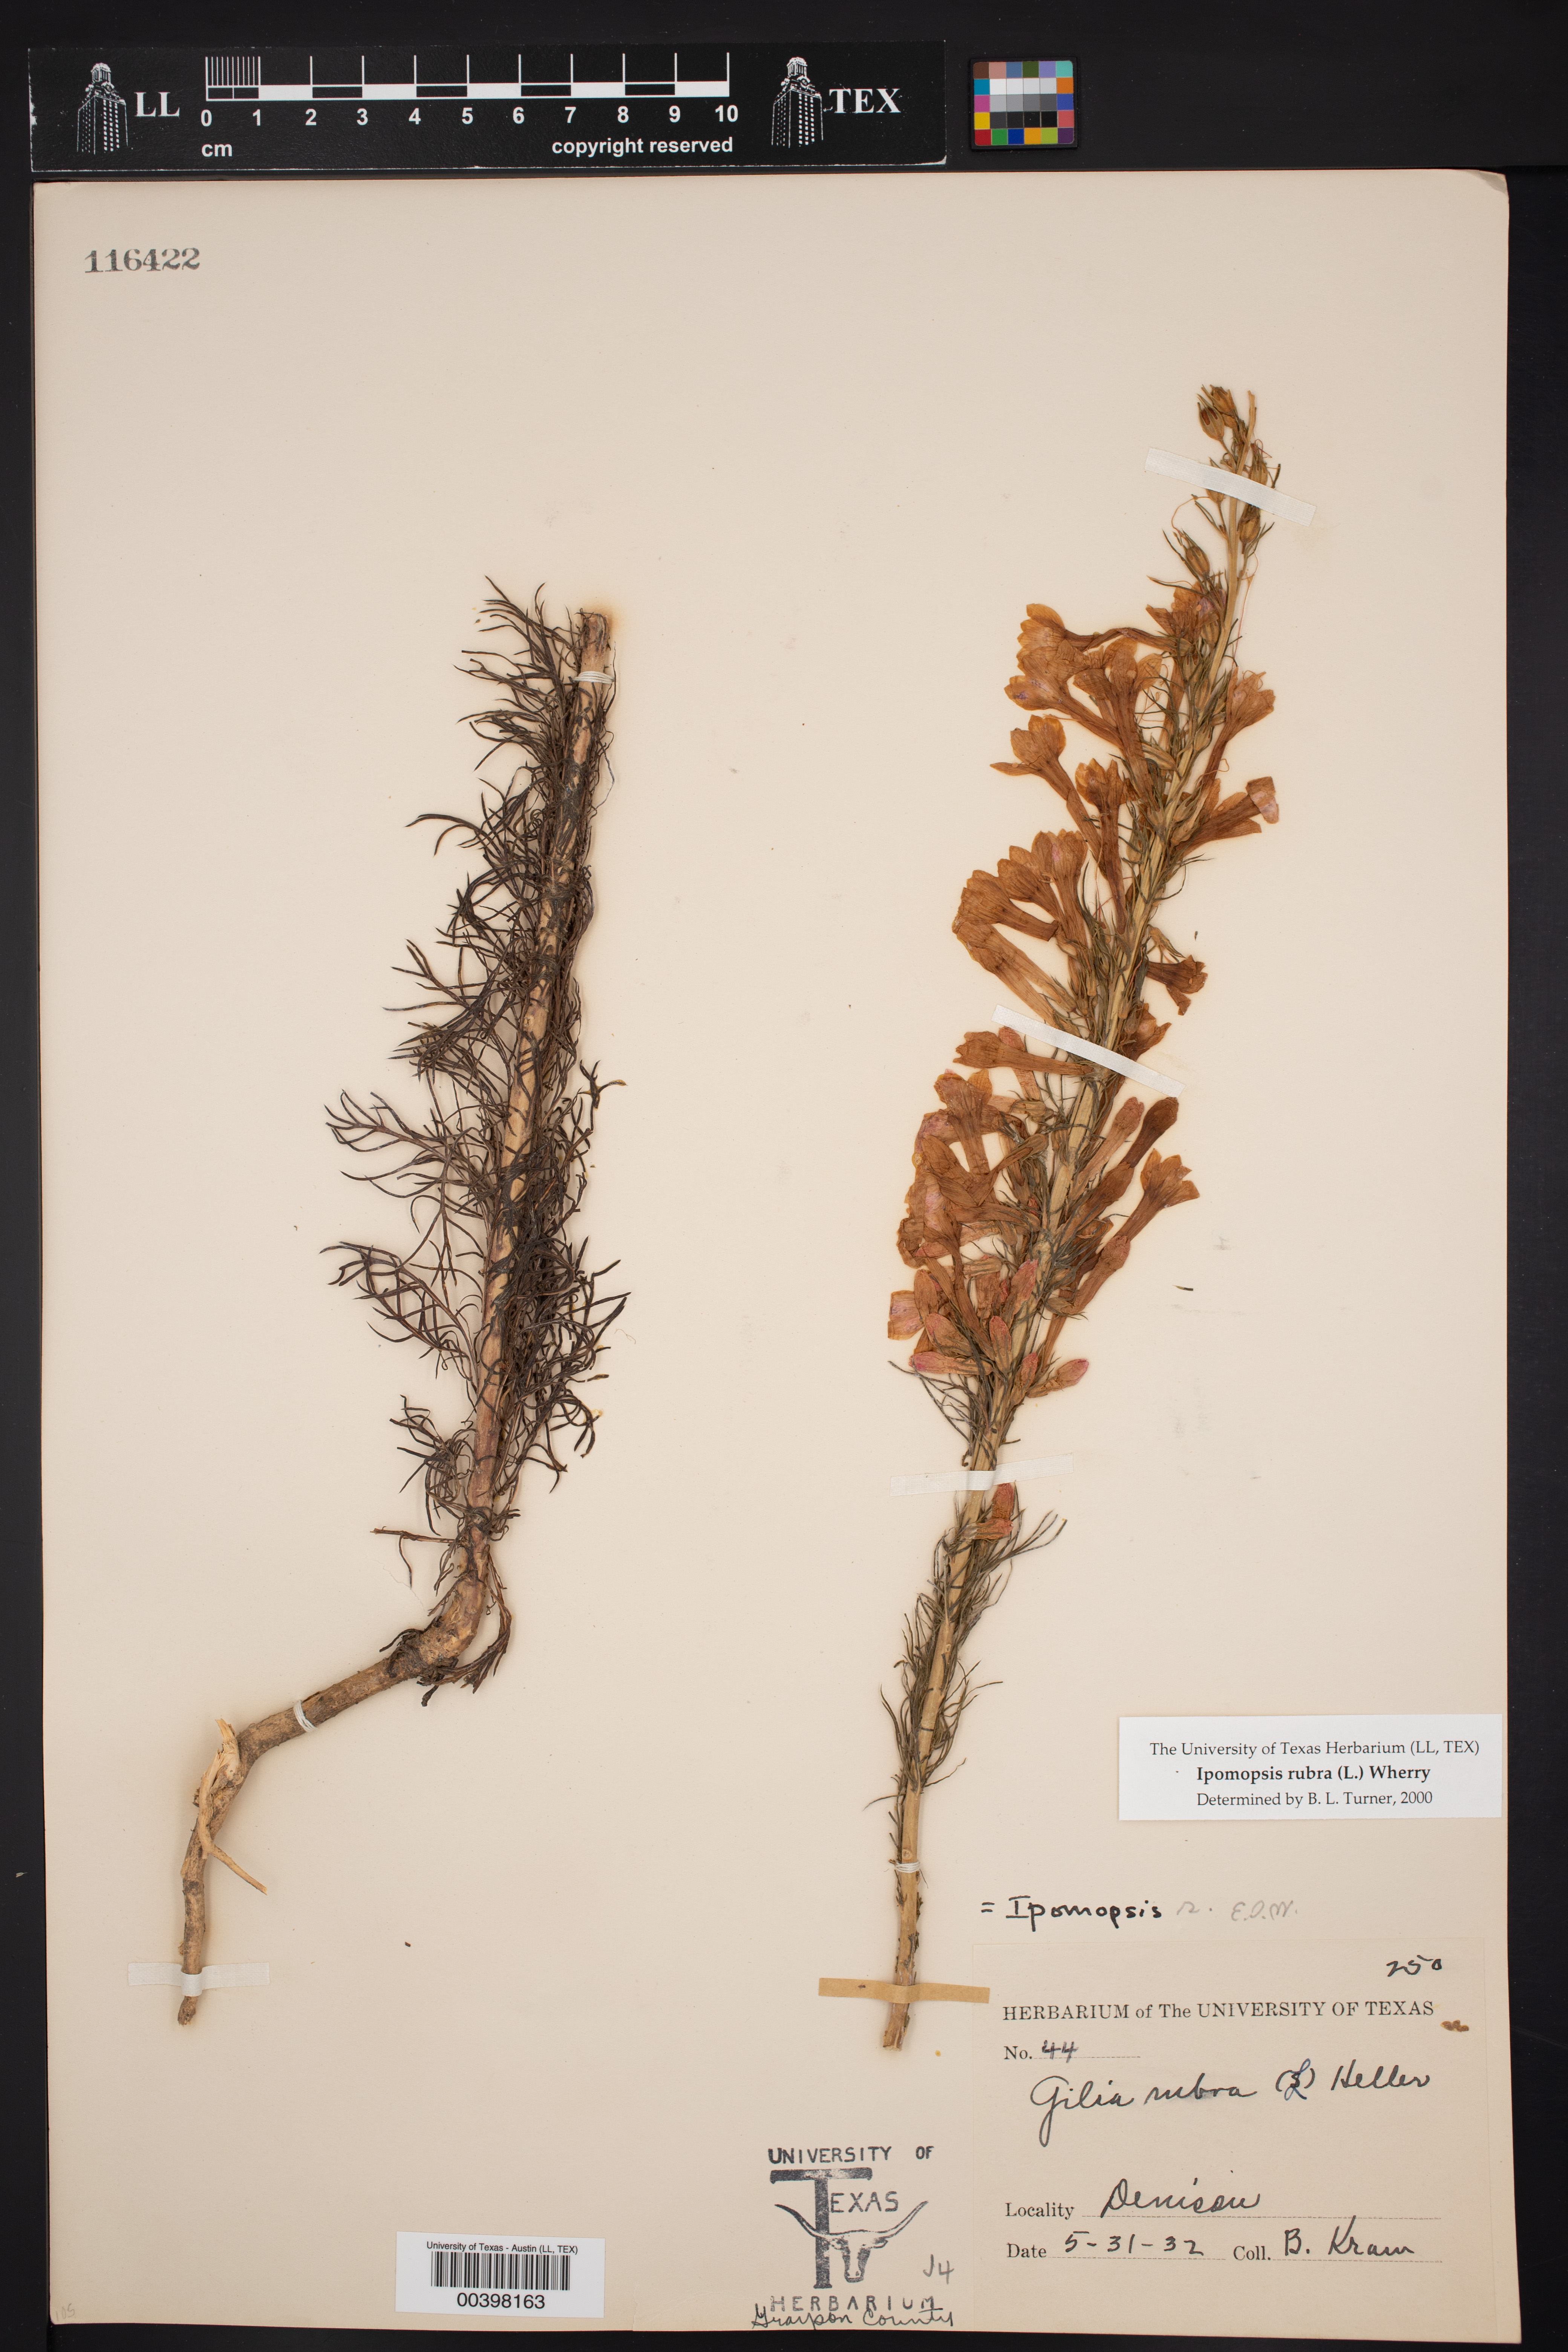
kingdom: Plantae
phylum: Tracheophyta
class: Magnoliopsida
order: Ericales
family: Polemoniaceae
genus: Ipomopsis
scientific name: Ipomopsis rubra
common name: Skyrocket
